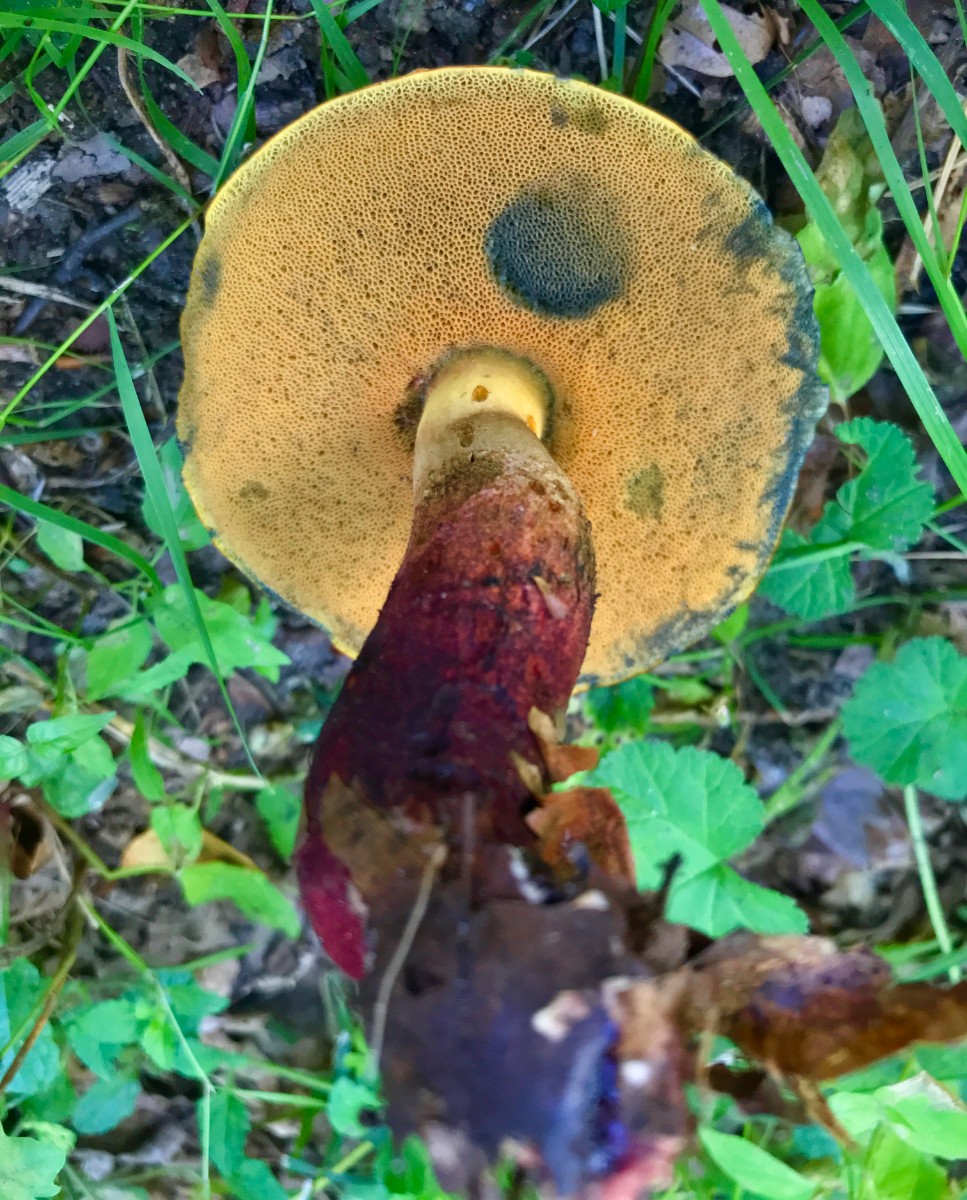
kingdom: Fungi
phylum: Basidiomycota
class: Agaricomycetes
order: Boletales
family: Boletaceae
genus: Suillellus
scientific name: Suillellus queletii
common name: glatstokket indigorørhat
